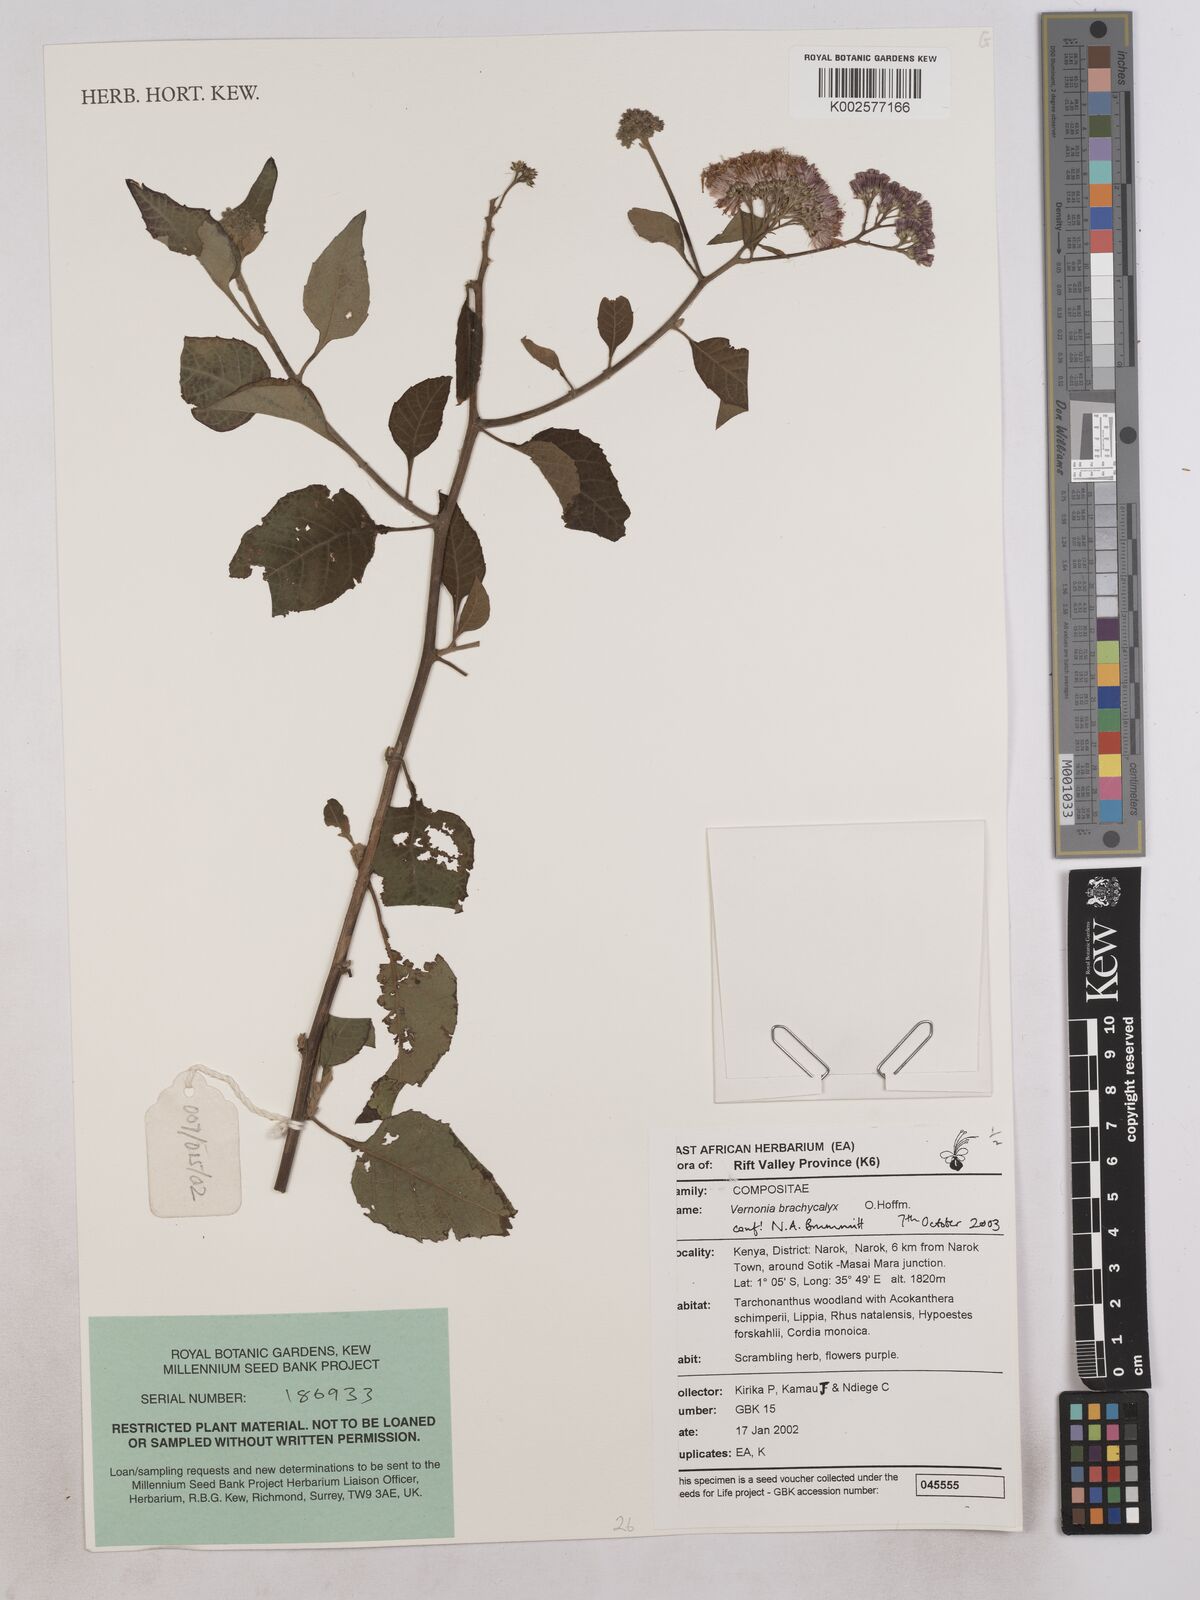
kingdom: Plantae
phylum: Tracheophyta
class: Magnoliopsida
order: Asterales
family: Asteraceae
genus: Hoffmannanthus
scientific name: Hoffmannanthus abbotianus
